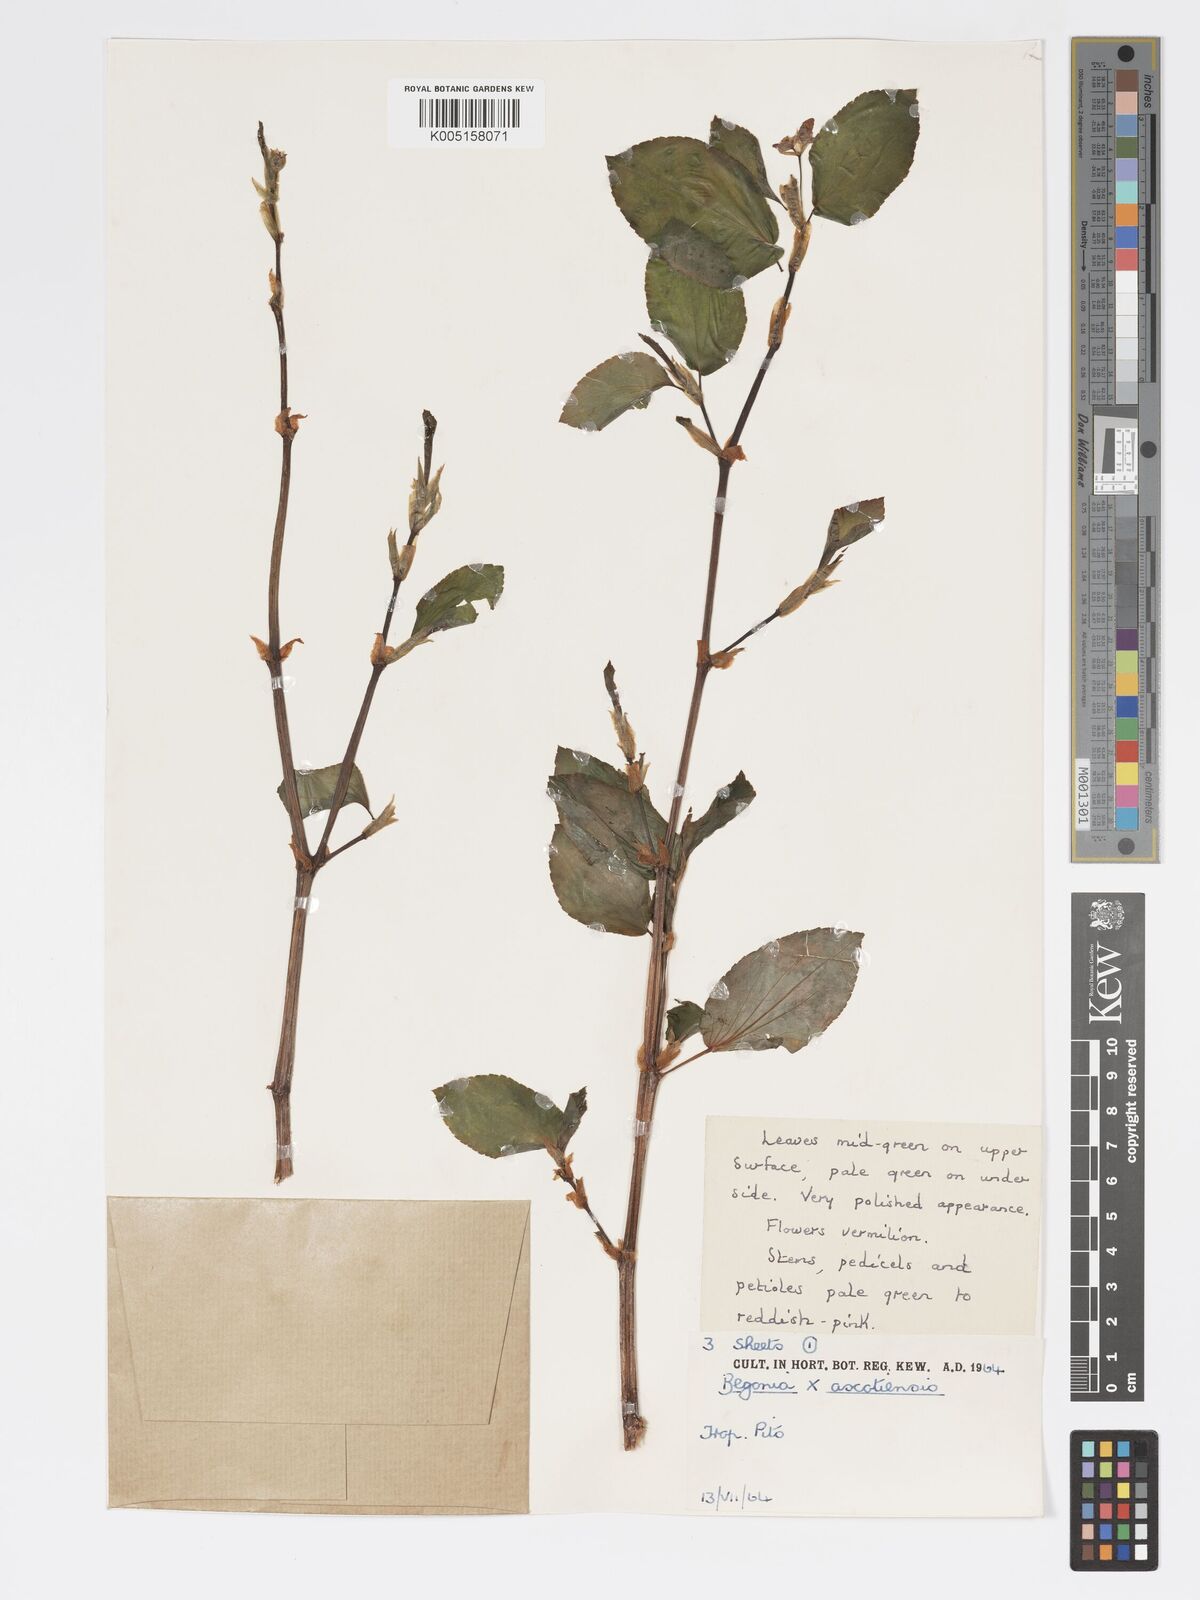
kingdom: Plantae
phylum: Tracheophyta
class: Magnoliopsida
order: Cucurbitales
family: Begoniaceae
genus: Begonia
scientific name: Begonia ascotiensis
